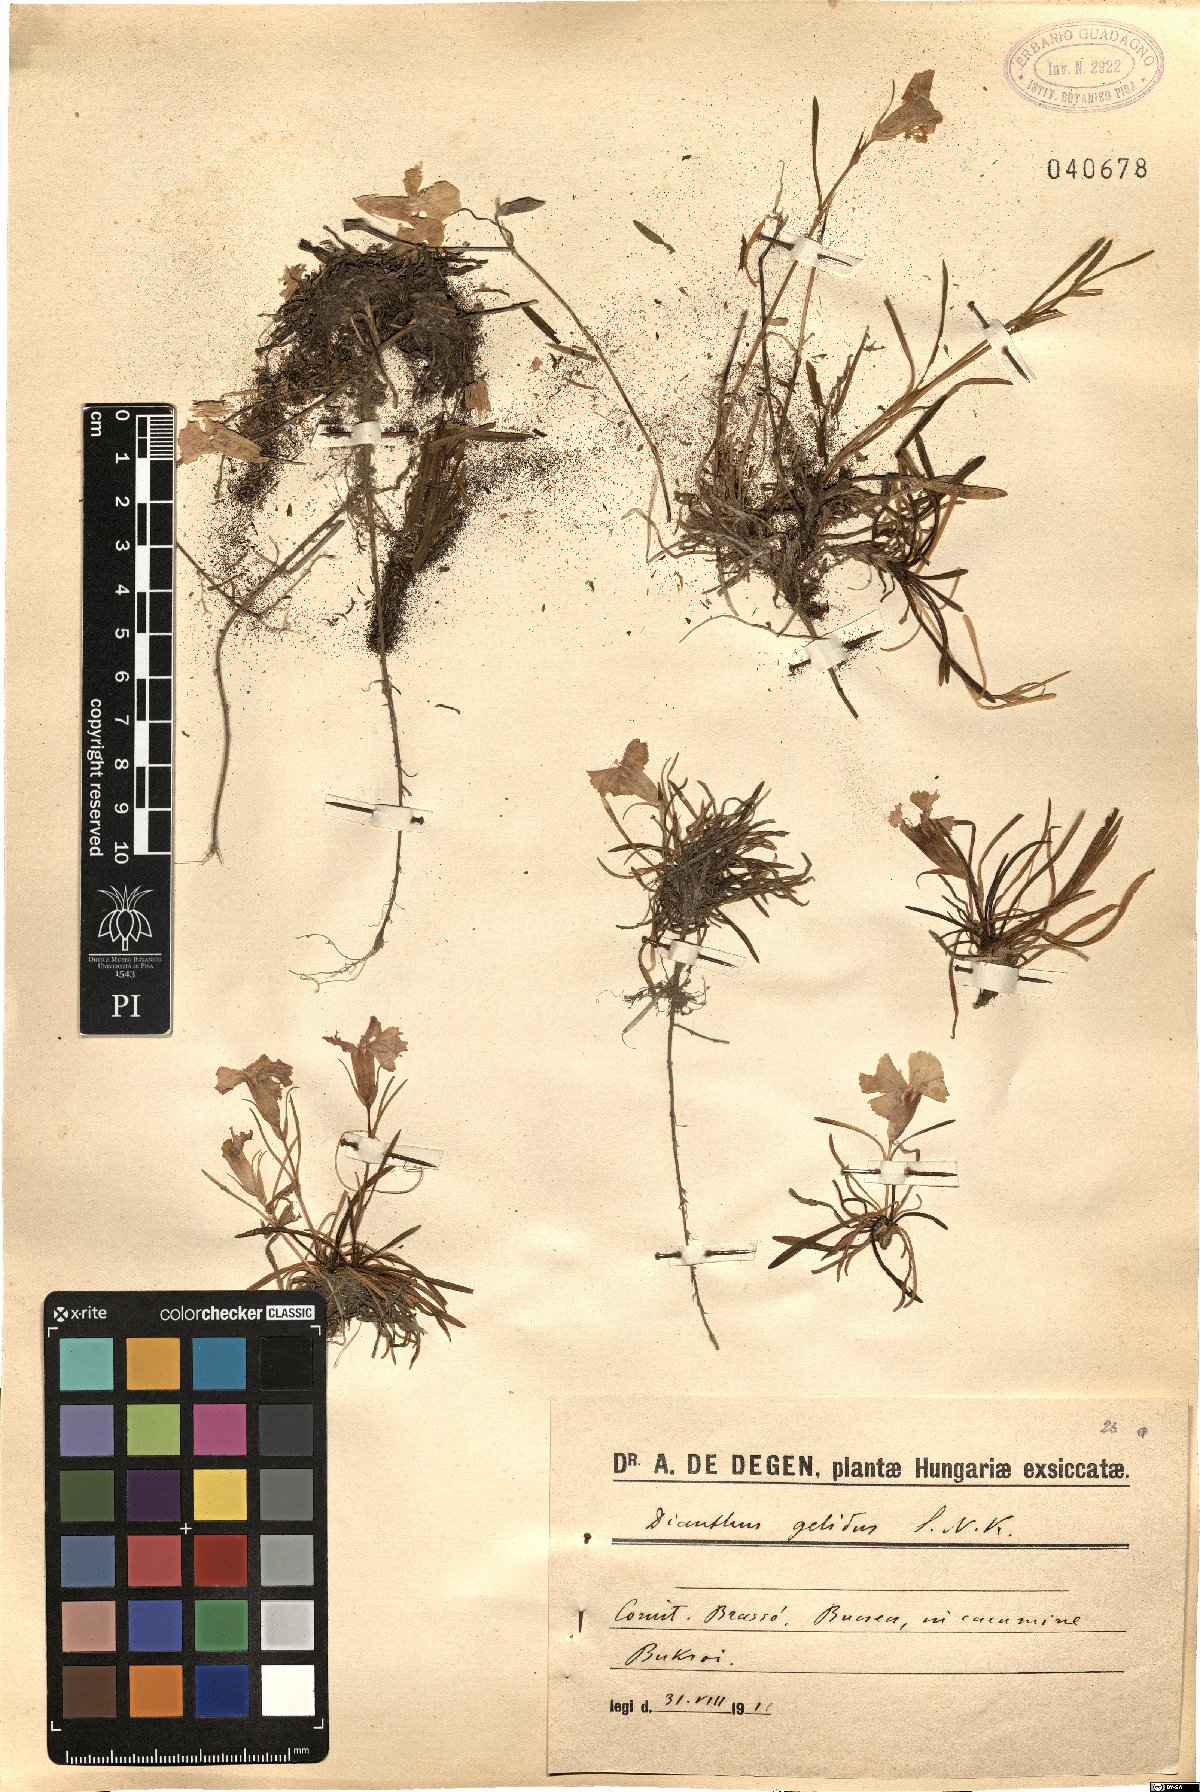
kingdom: Plantae
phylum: Tracheophyta
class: Magnoliopsida
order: Caryophyllales
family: Caryophyllaceae
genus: Dianthus
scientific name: Dianthus glacialis
